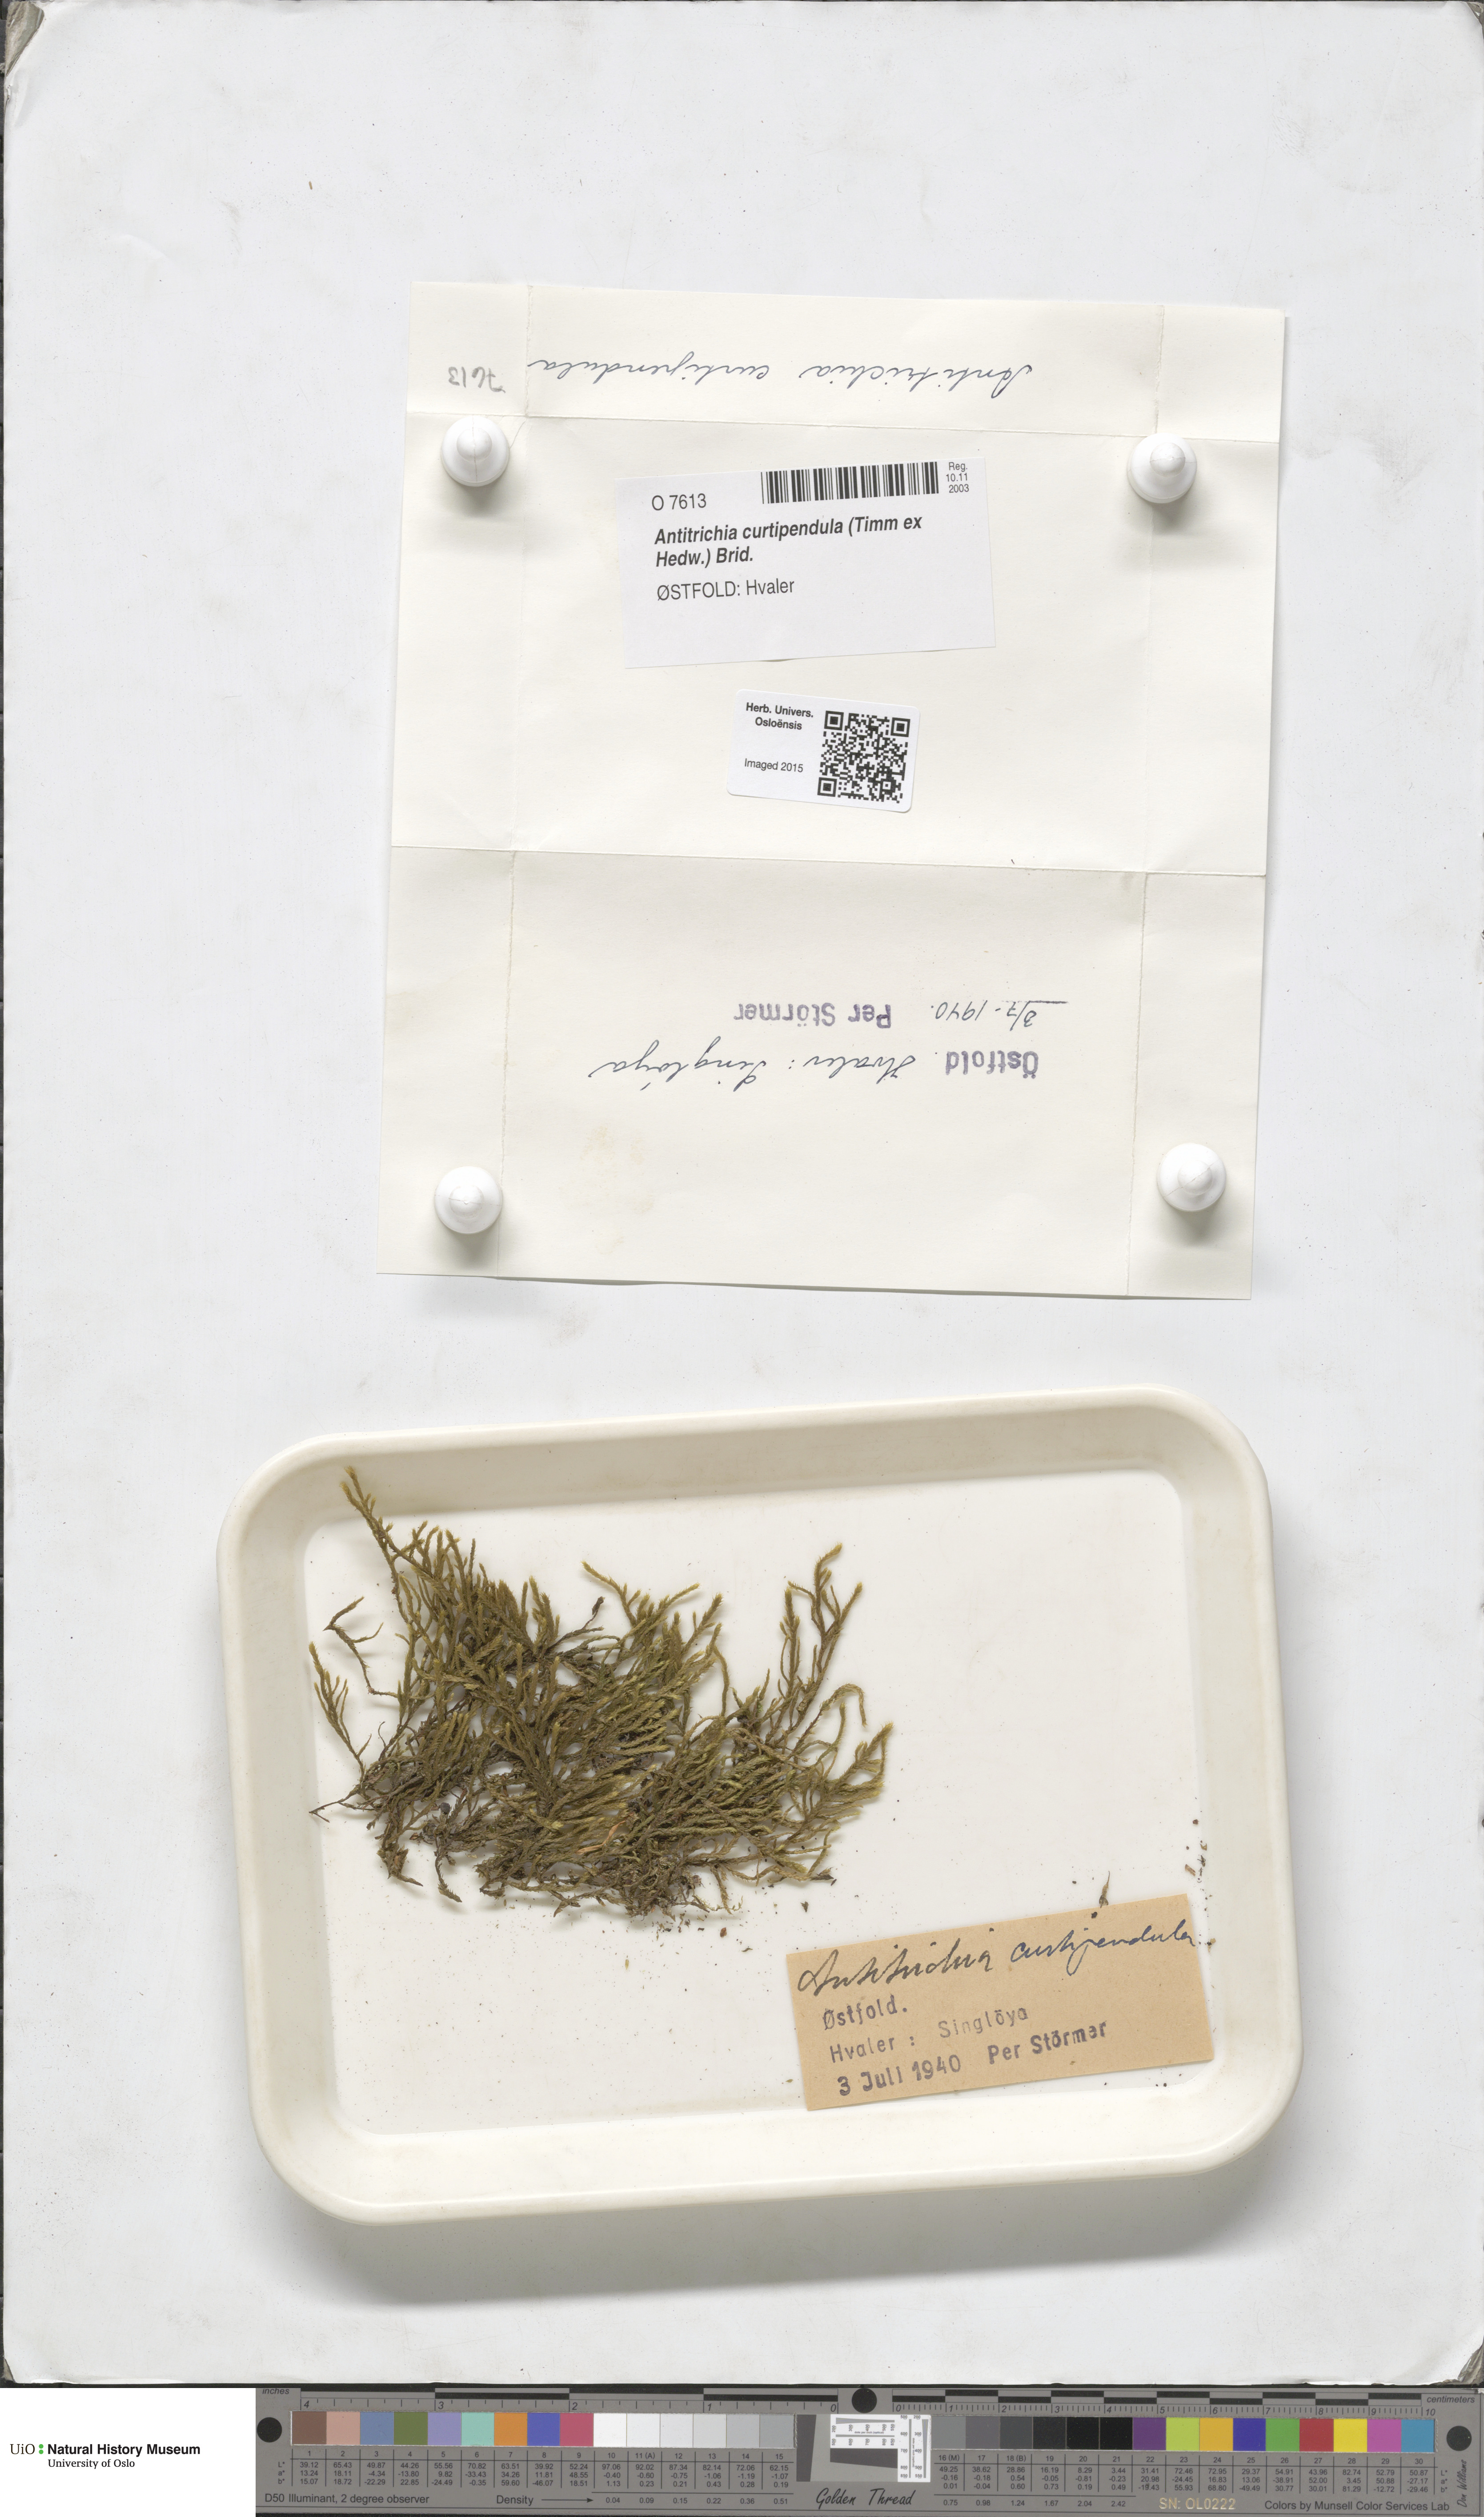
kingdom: Plantae
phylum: Bryophyta
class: Bryopsida
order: Hypnales
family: Antitrichiaceae
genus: Antitrichia
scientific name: Antitrichia curtipendula
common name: Pendulous wing-moss
